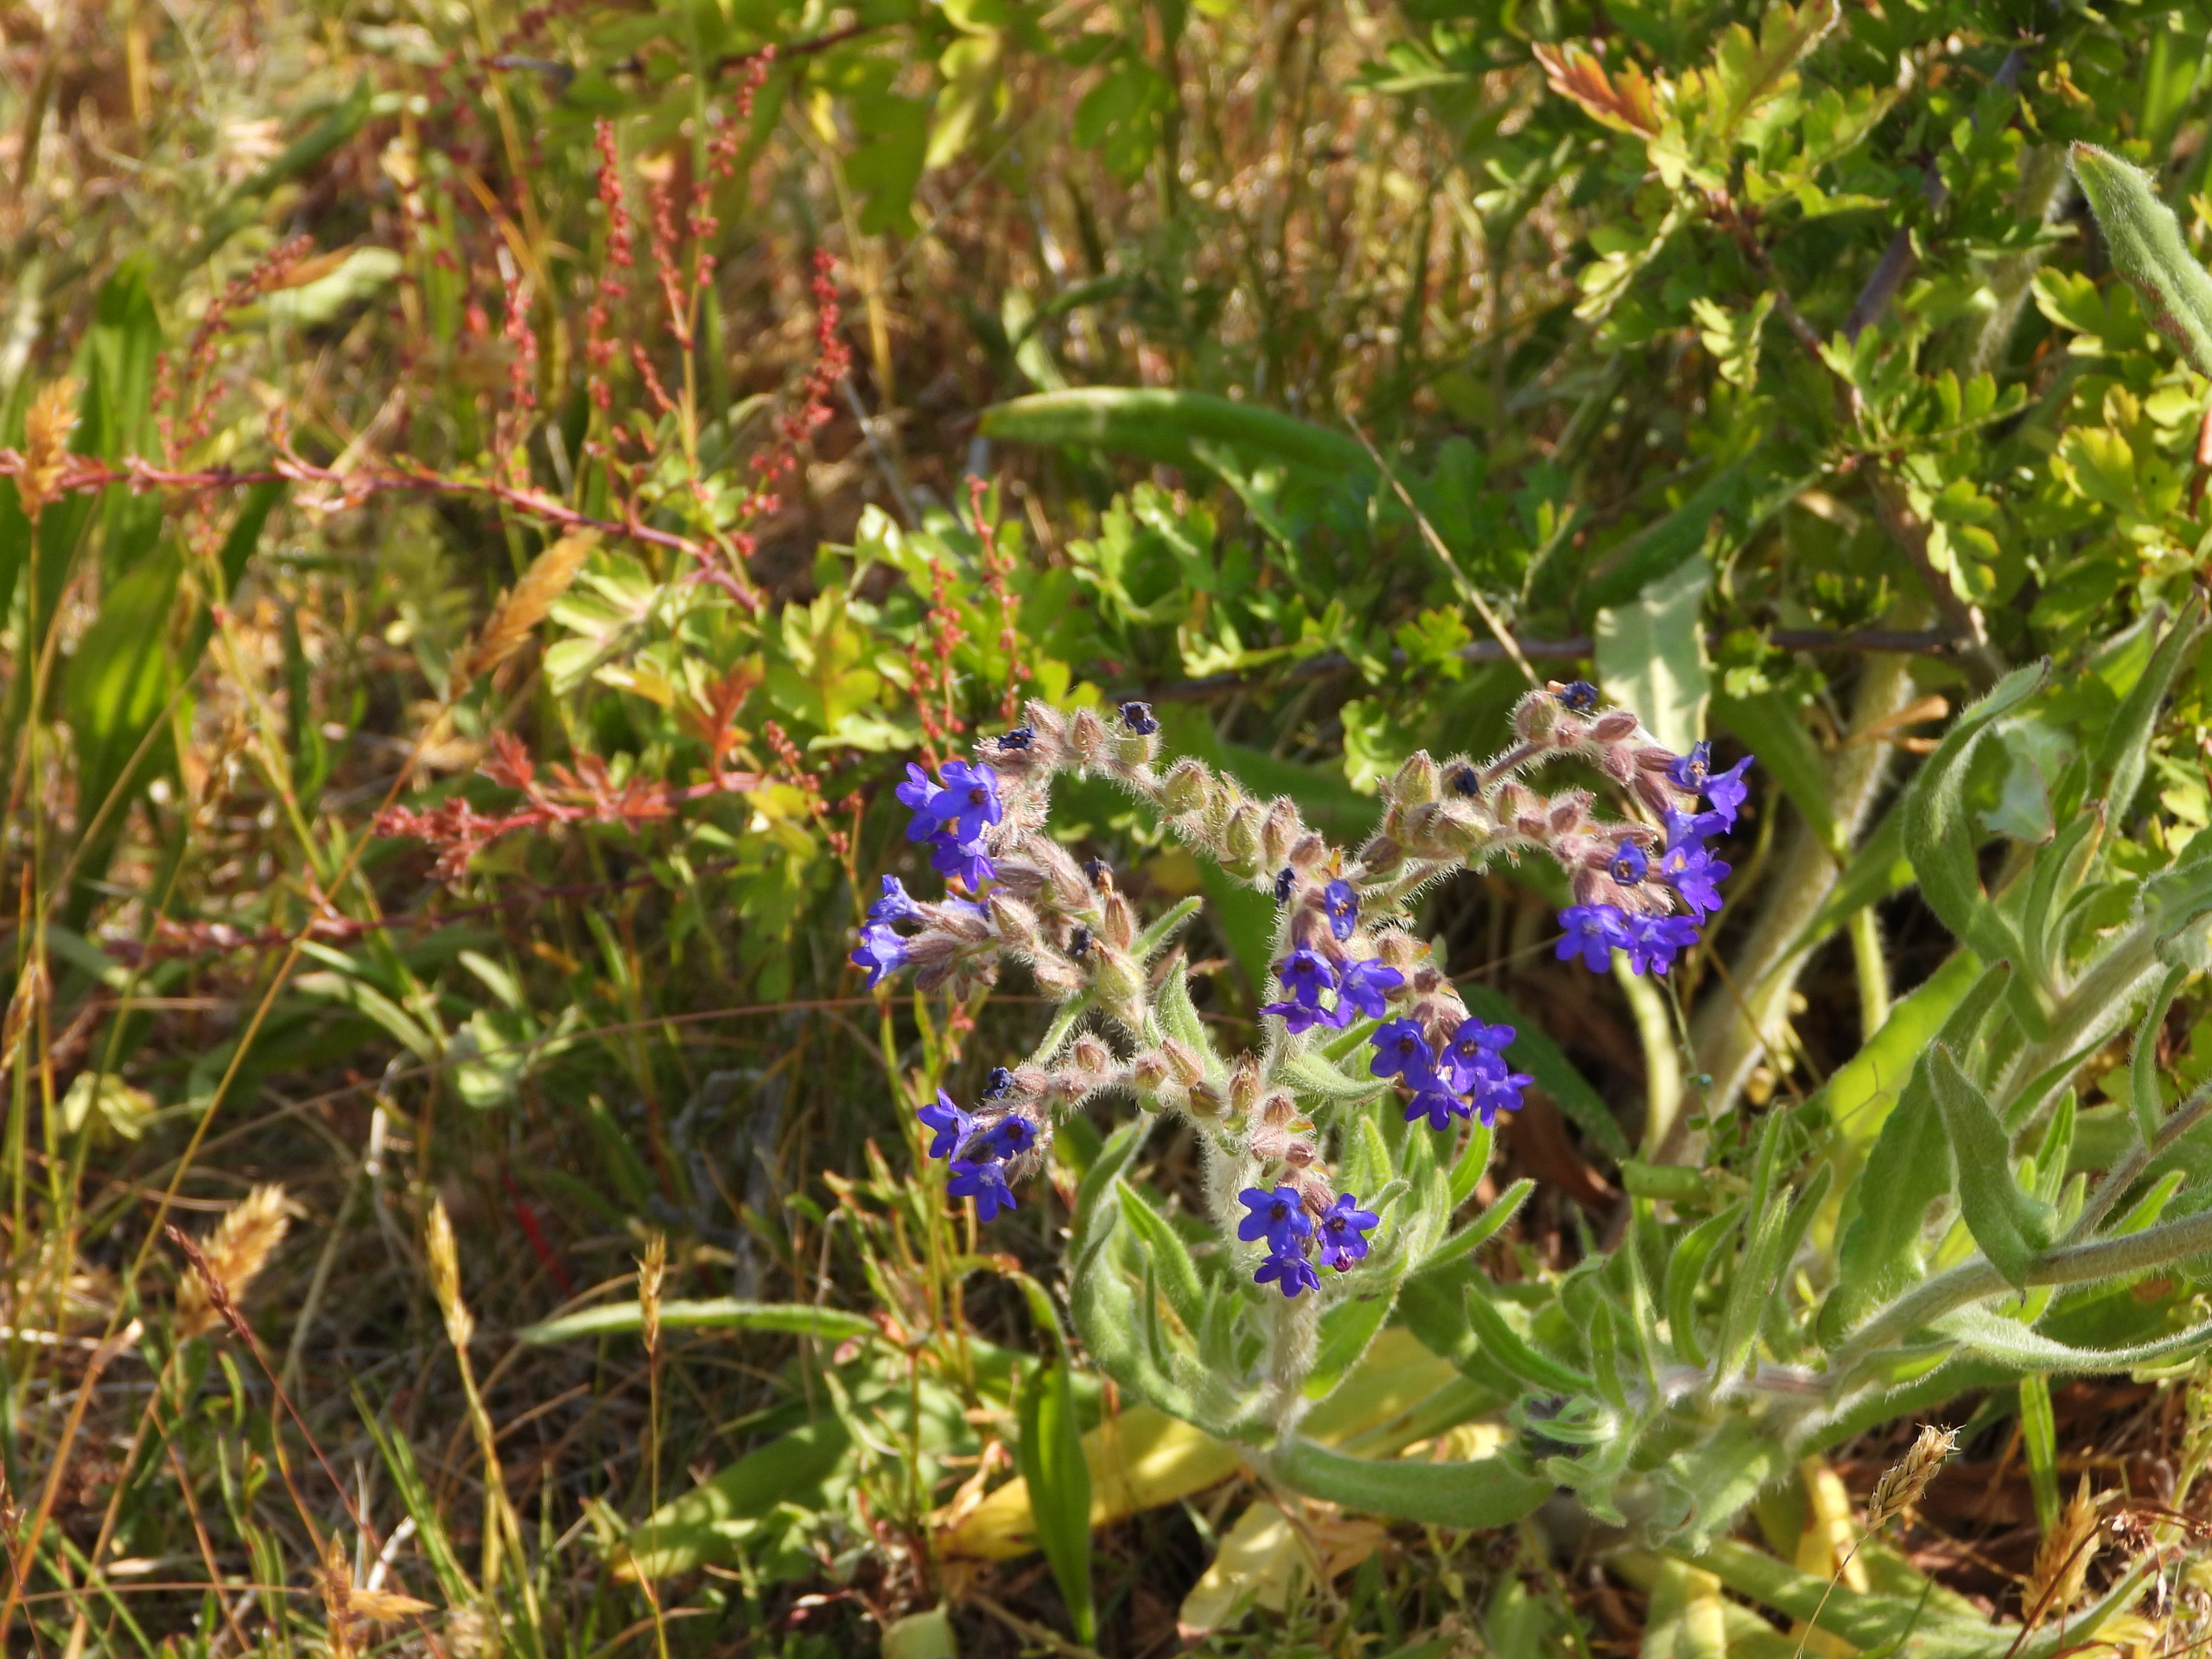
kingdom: Plantae
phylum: Tracheophyta
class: Magnoliopsida
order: Boraginales
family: Boraginaceae
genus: Anchusa
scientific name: Anchusa officinalis
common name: Læge-oksetunge
